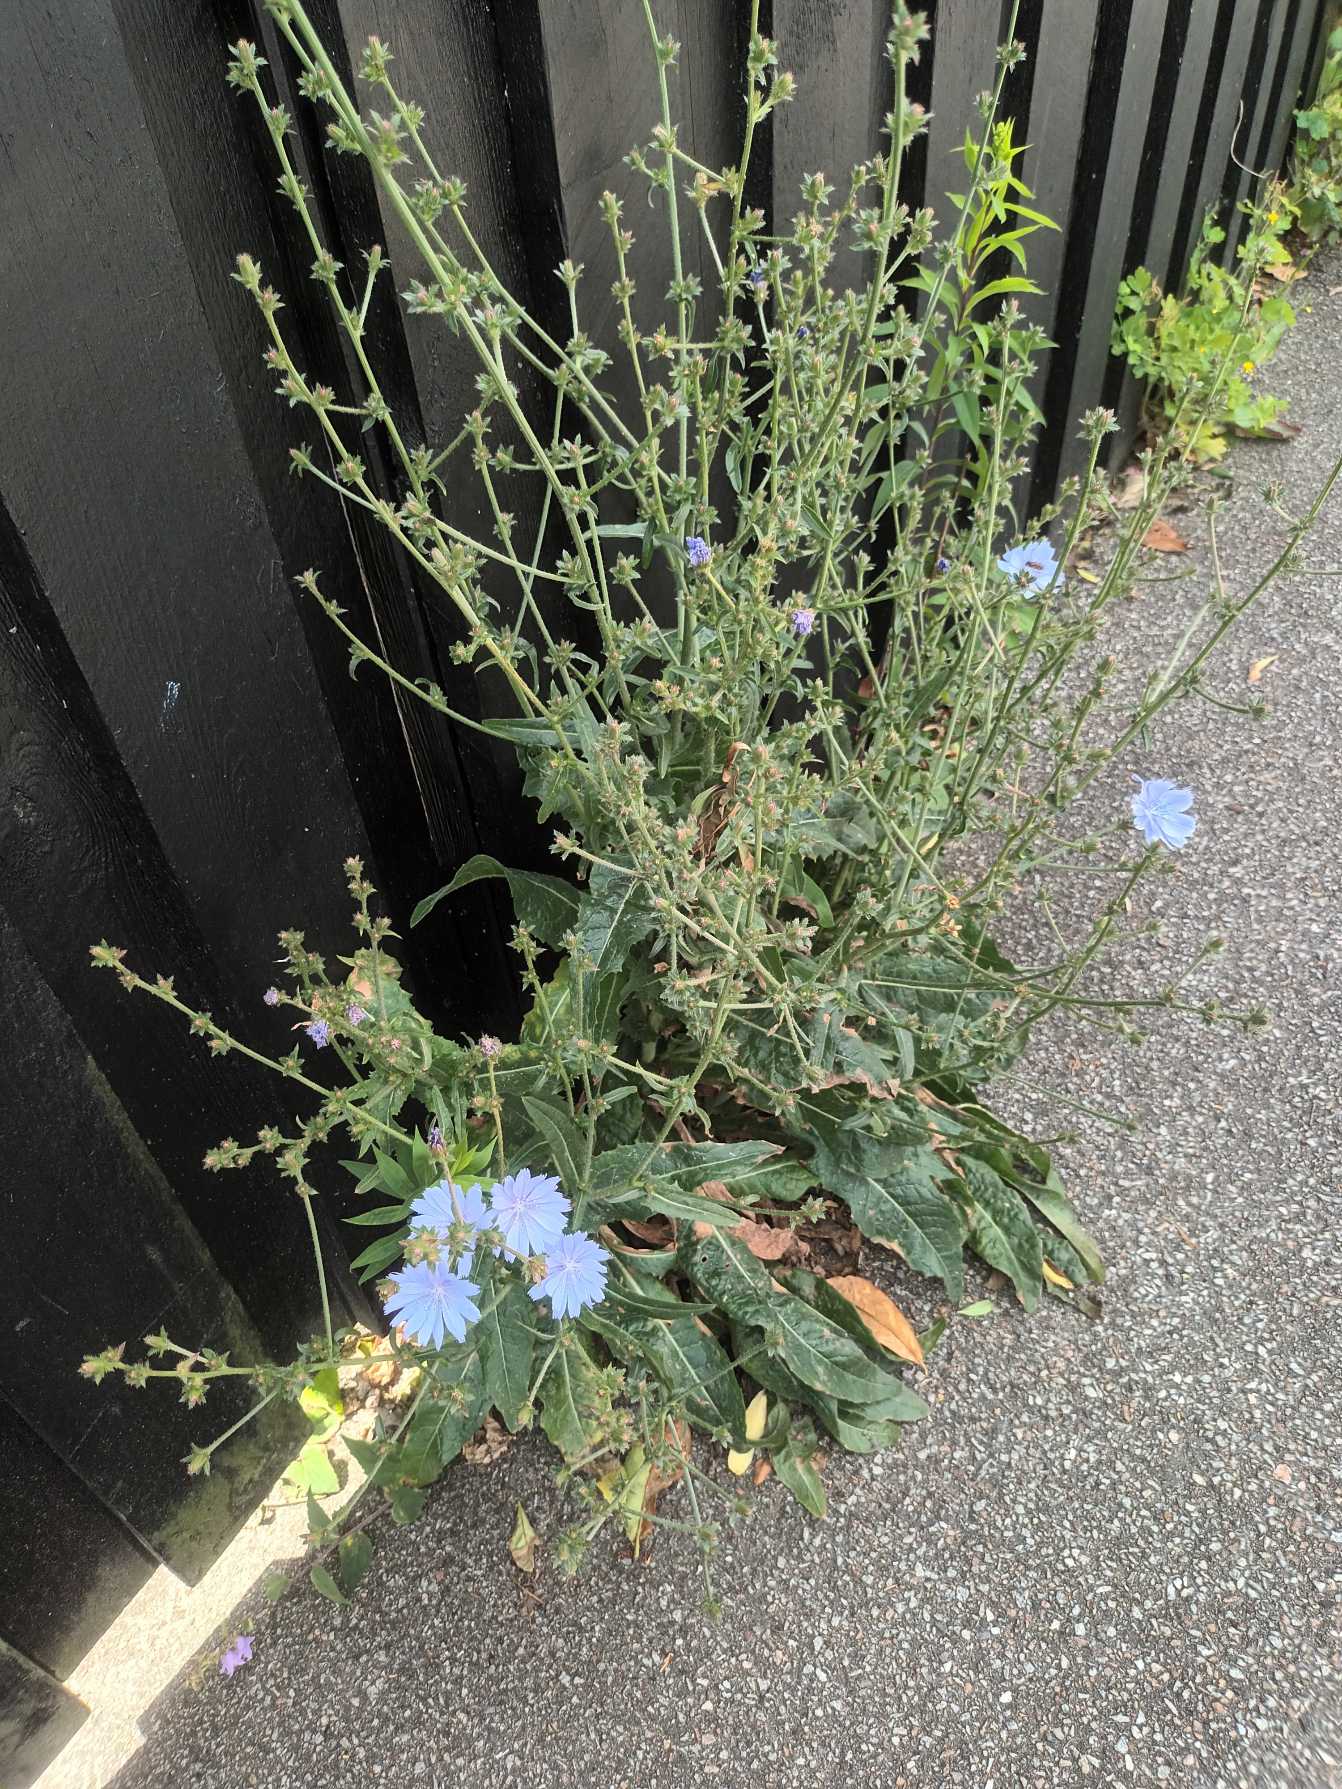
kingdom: Plantae
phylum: Tracheophyta
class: Magnoliopsida
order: Asterales
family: Asteraceae
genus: Cichorium
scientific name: Cichorium intybus
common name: Cikorie
